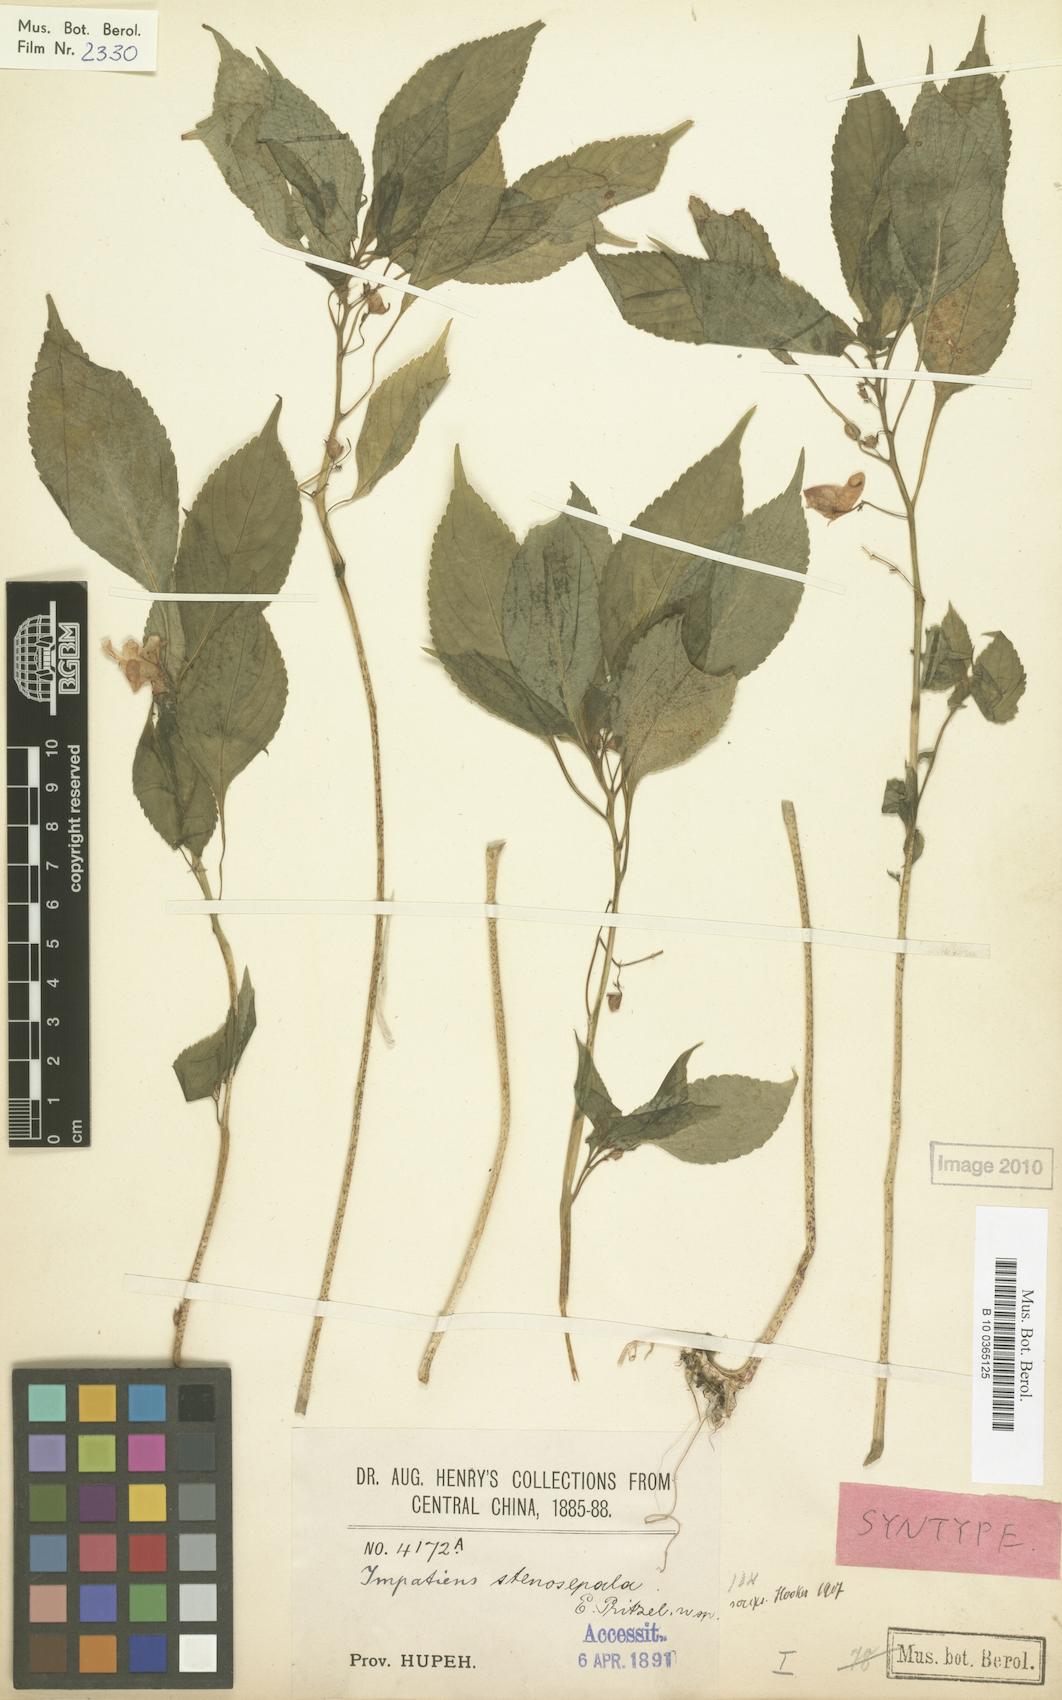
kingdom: Plantae
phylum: Tracheophyta
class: Magnoliopsida
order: Ericales
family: Balsaminaceae
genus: Impatiens
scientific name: Impatiens stenosepala
